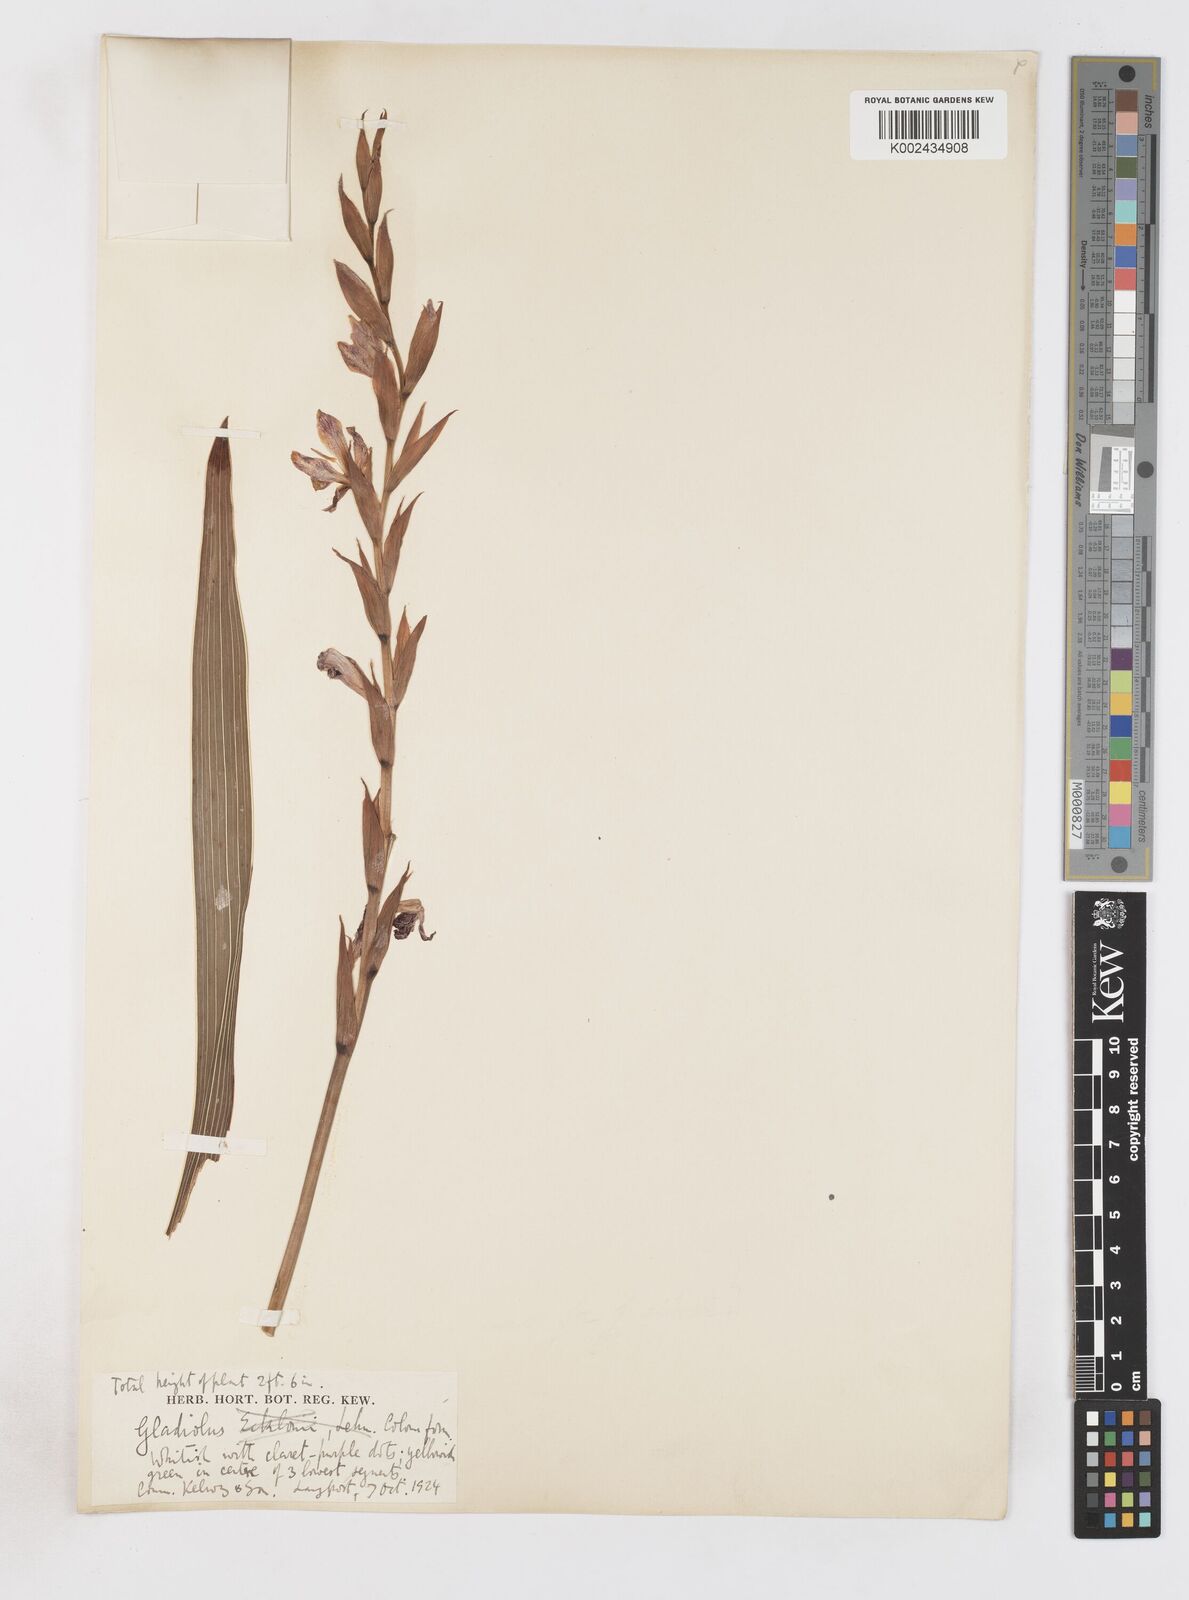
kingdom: Plantae
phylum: Tracheophyta
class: Liliopsida
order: Asparagales
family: Iridaceae
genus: Gladiolus
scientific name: Gladiolus elliotii
